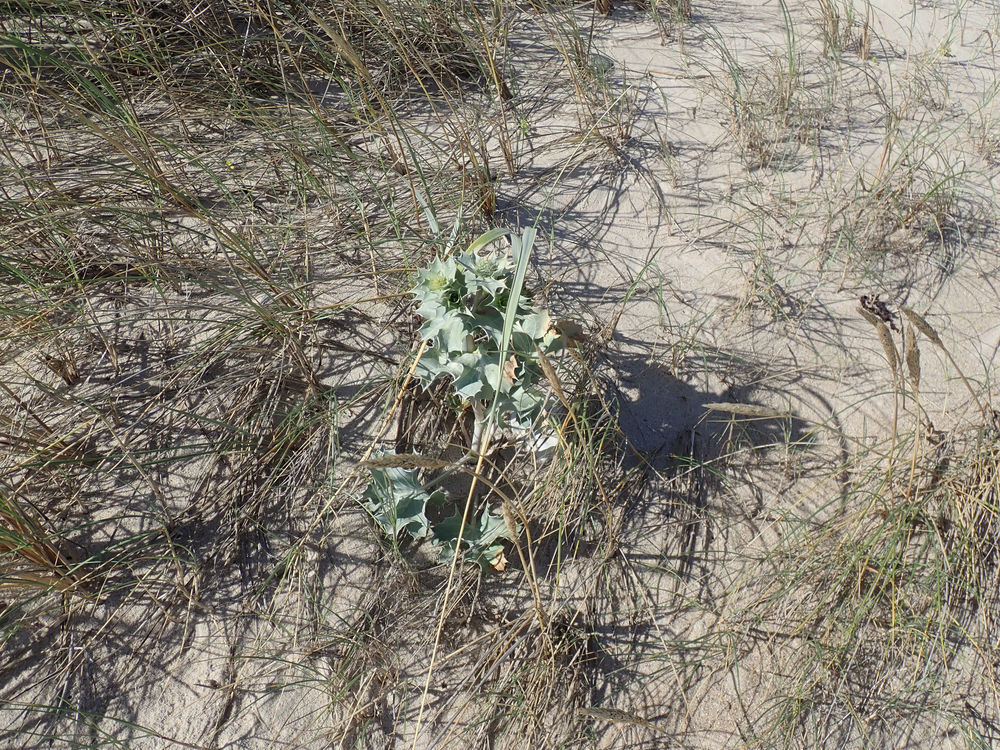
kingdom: Plantae
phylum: Tracheophyta
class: Magnoliopsida
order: Apiales
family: Apiaceae
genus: Eryngium
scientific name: Eryngium maritimum
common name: Strand-mandstro
